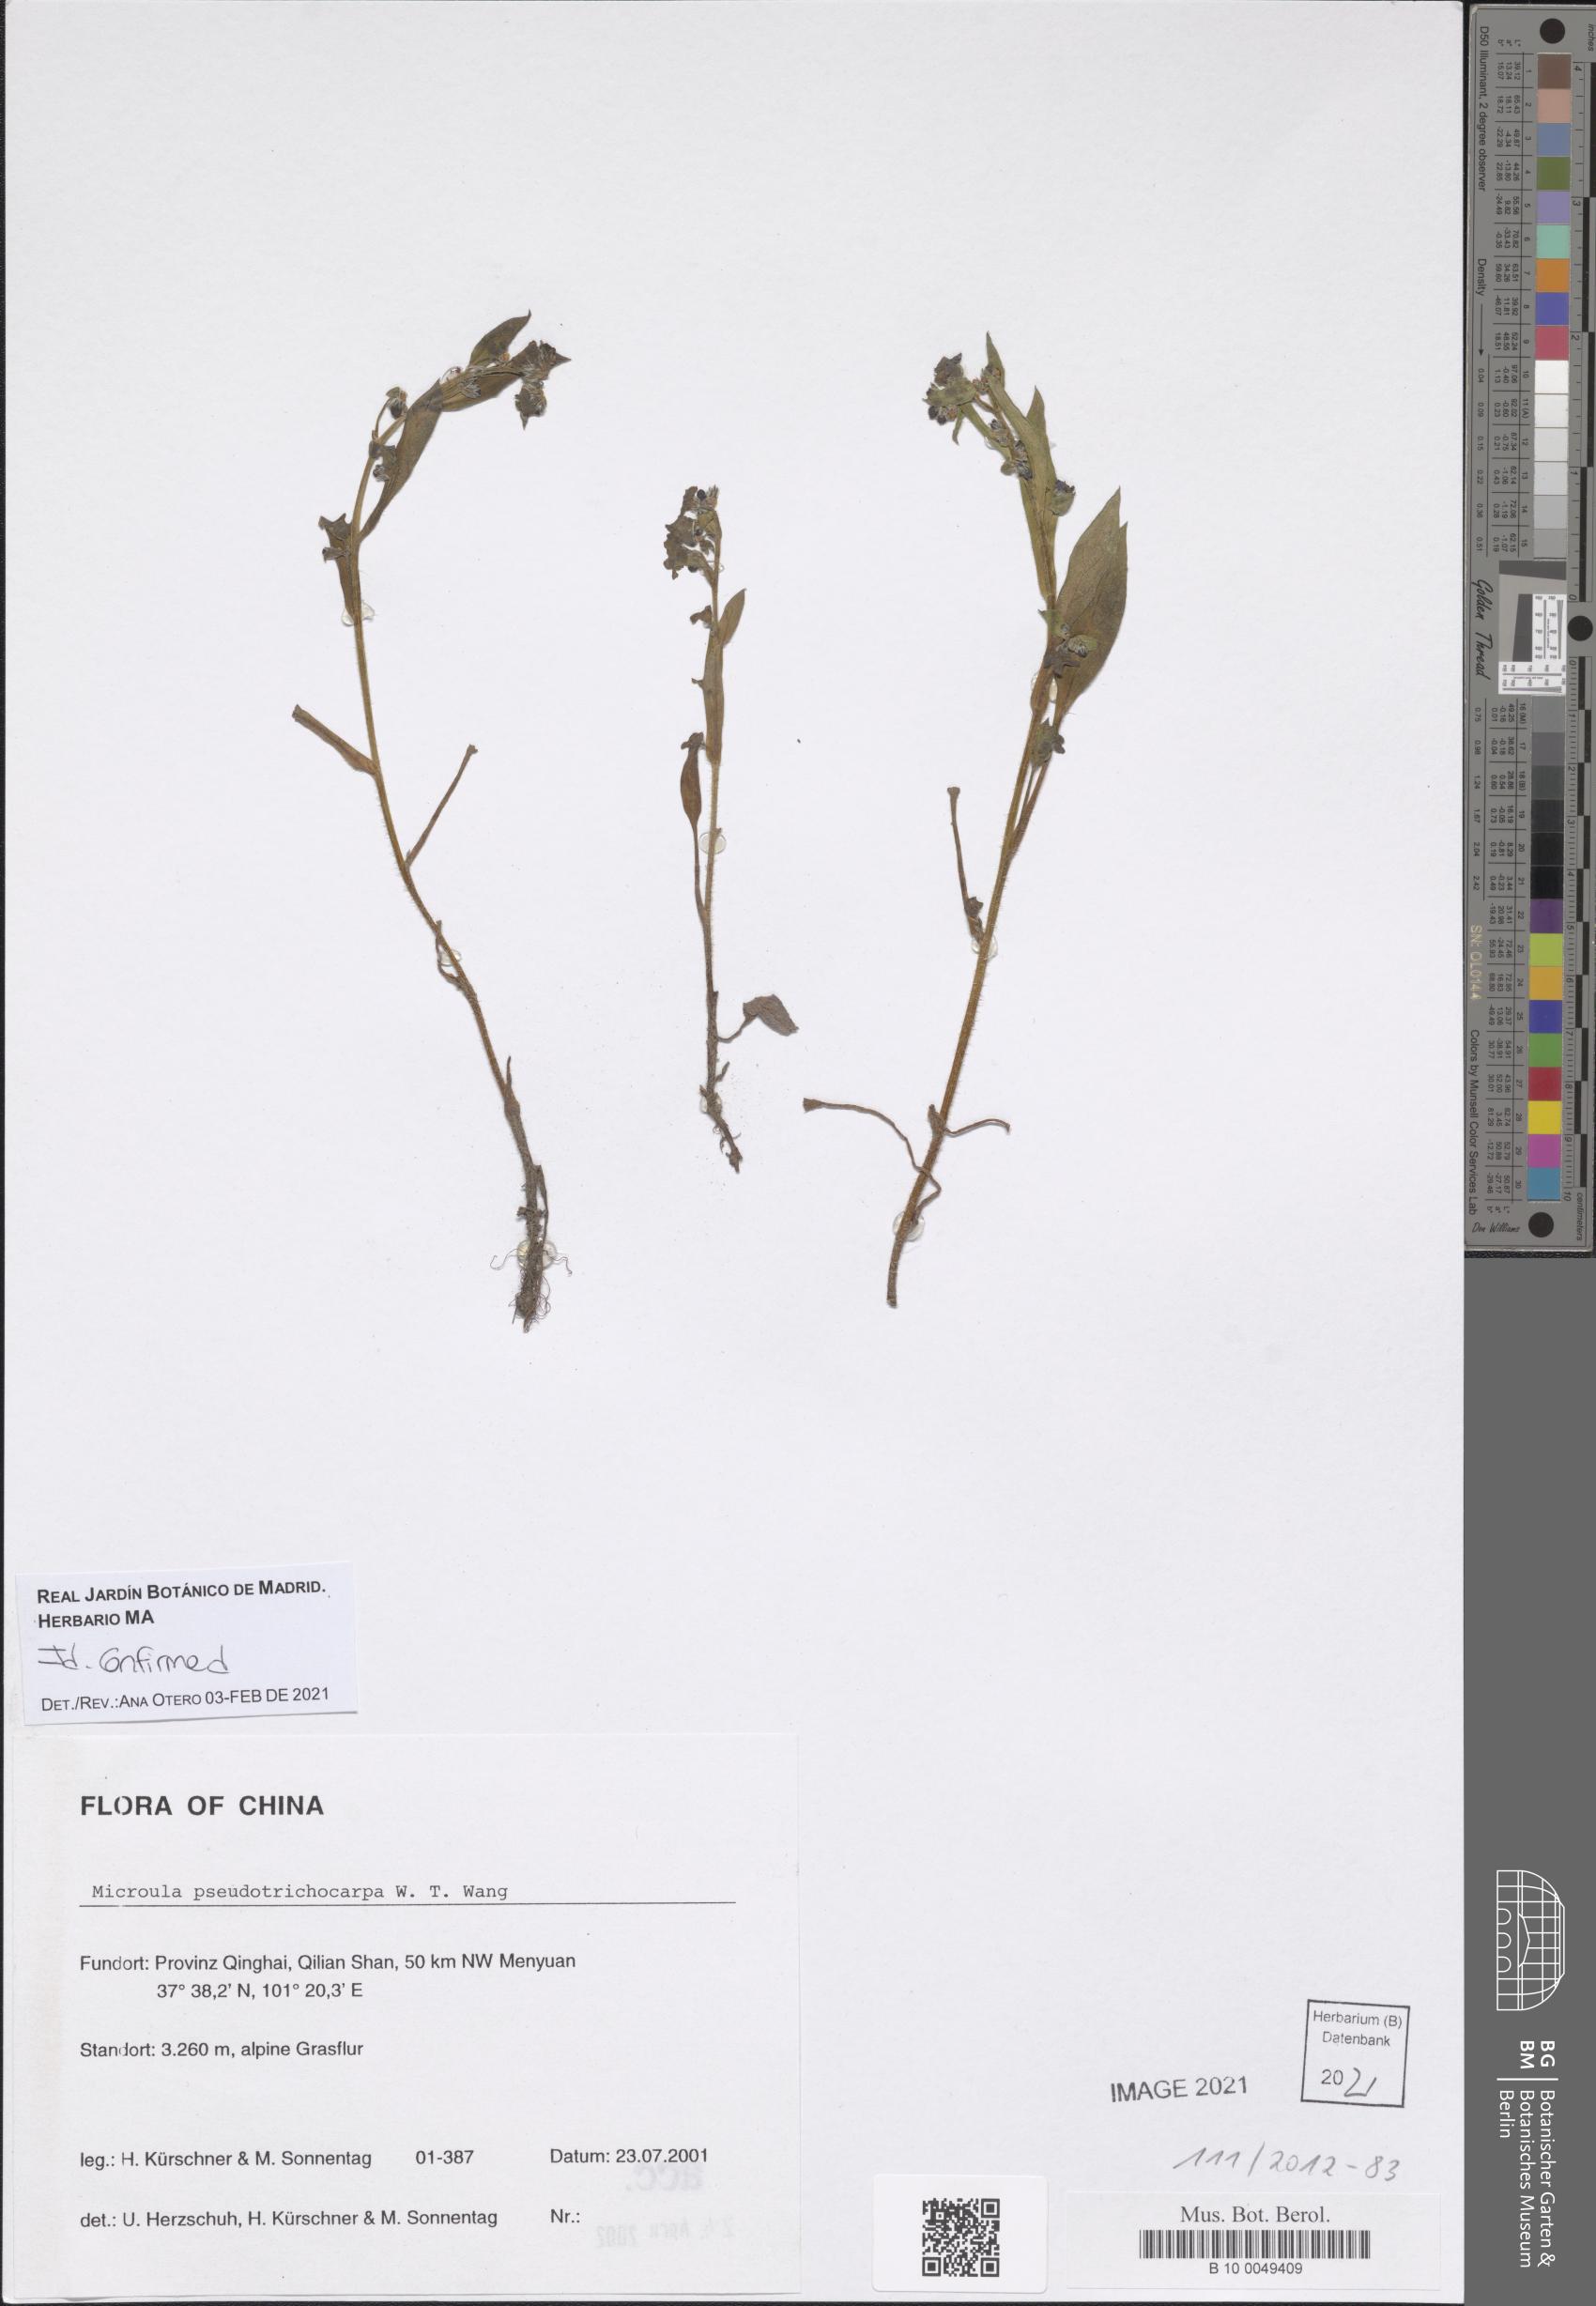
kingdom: Plantae
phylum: Tracheophyta
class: Magnoliopsida
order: Boraginales
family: Boraginaceae
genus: Microula
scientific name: Microula pseudotrichocarpa
